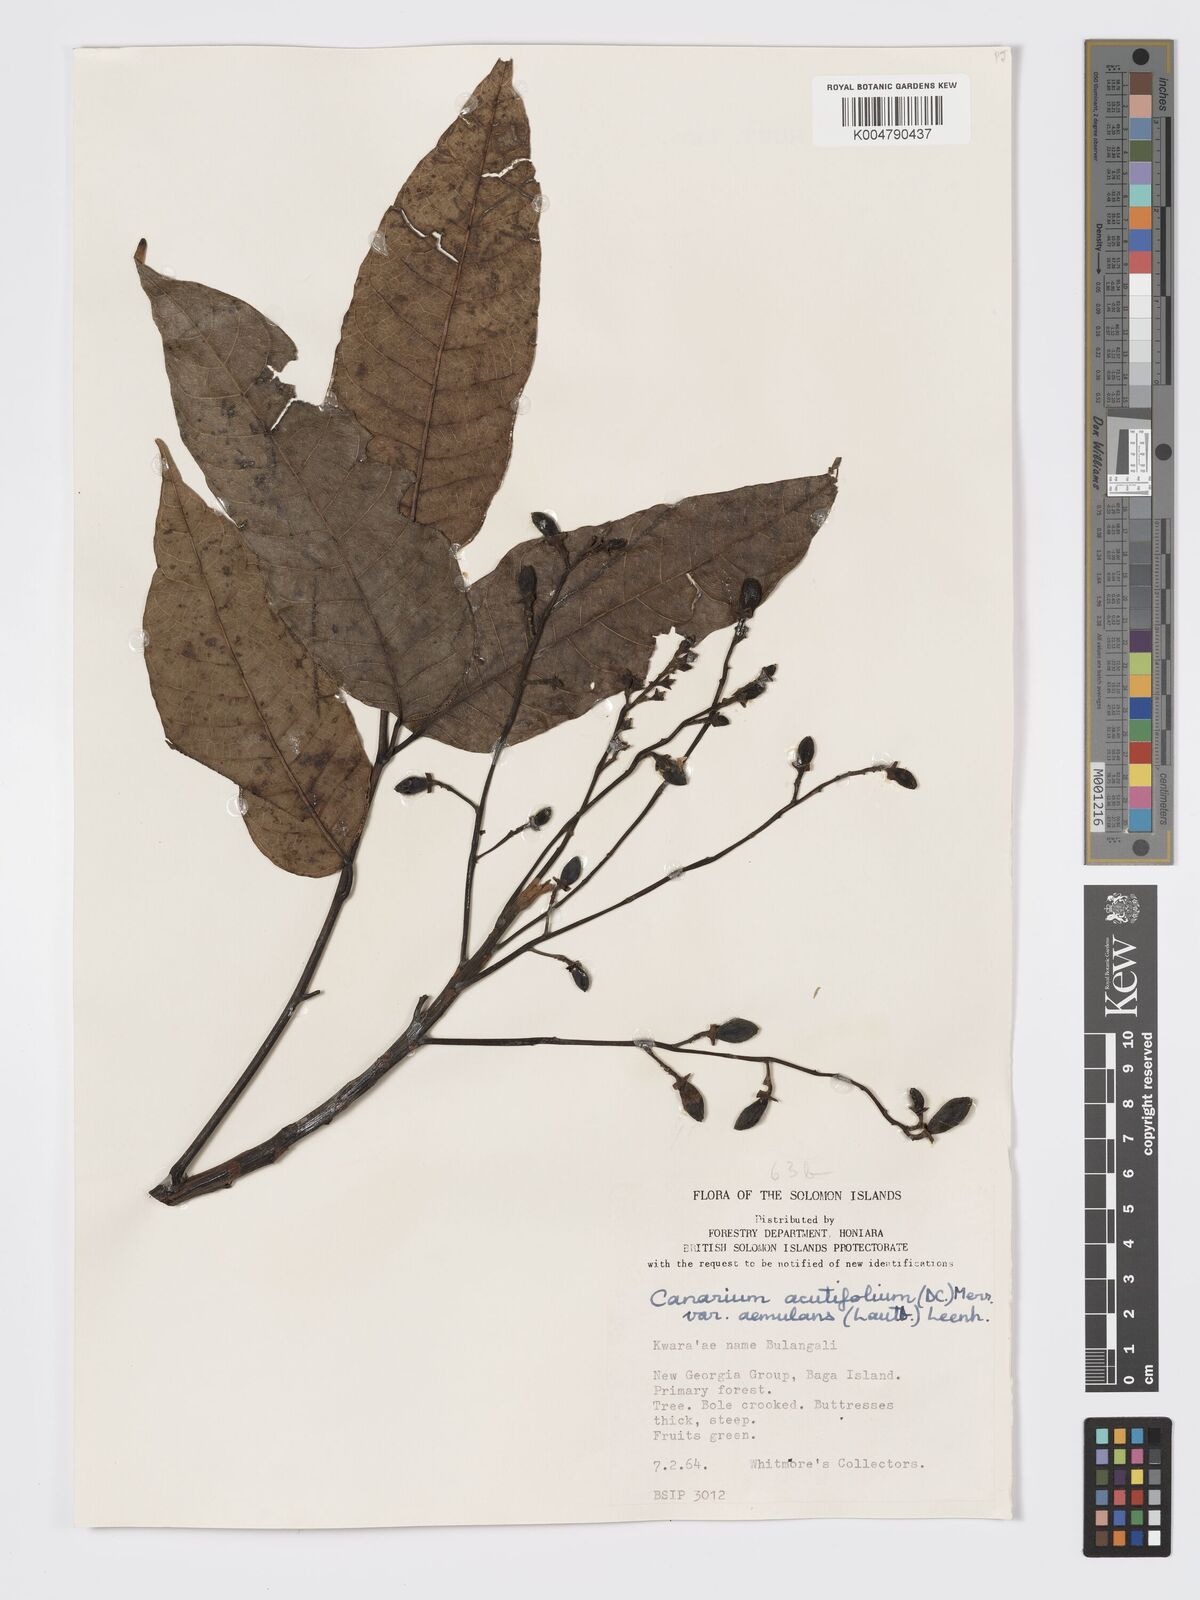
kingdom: Plantae
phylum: Tracheophyta
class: Magnoliopsida
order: Sapindales
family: Burseraceae
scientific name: Burseraceae
